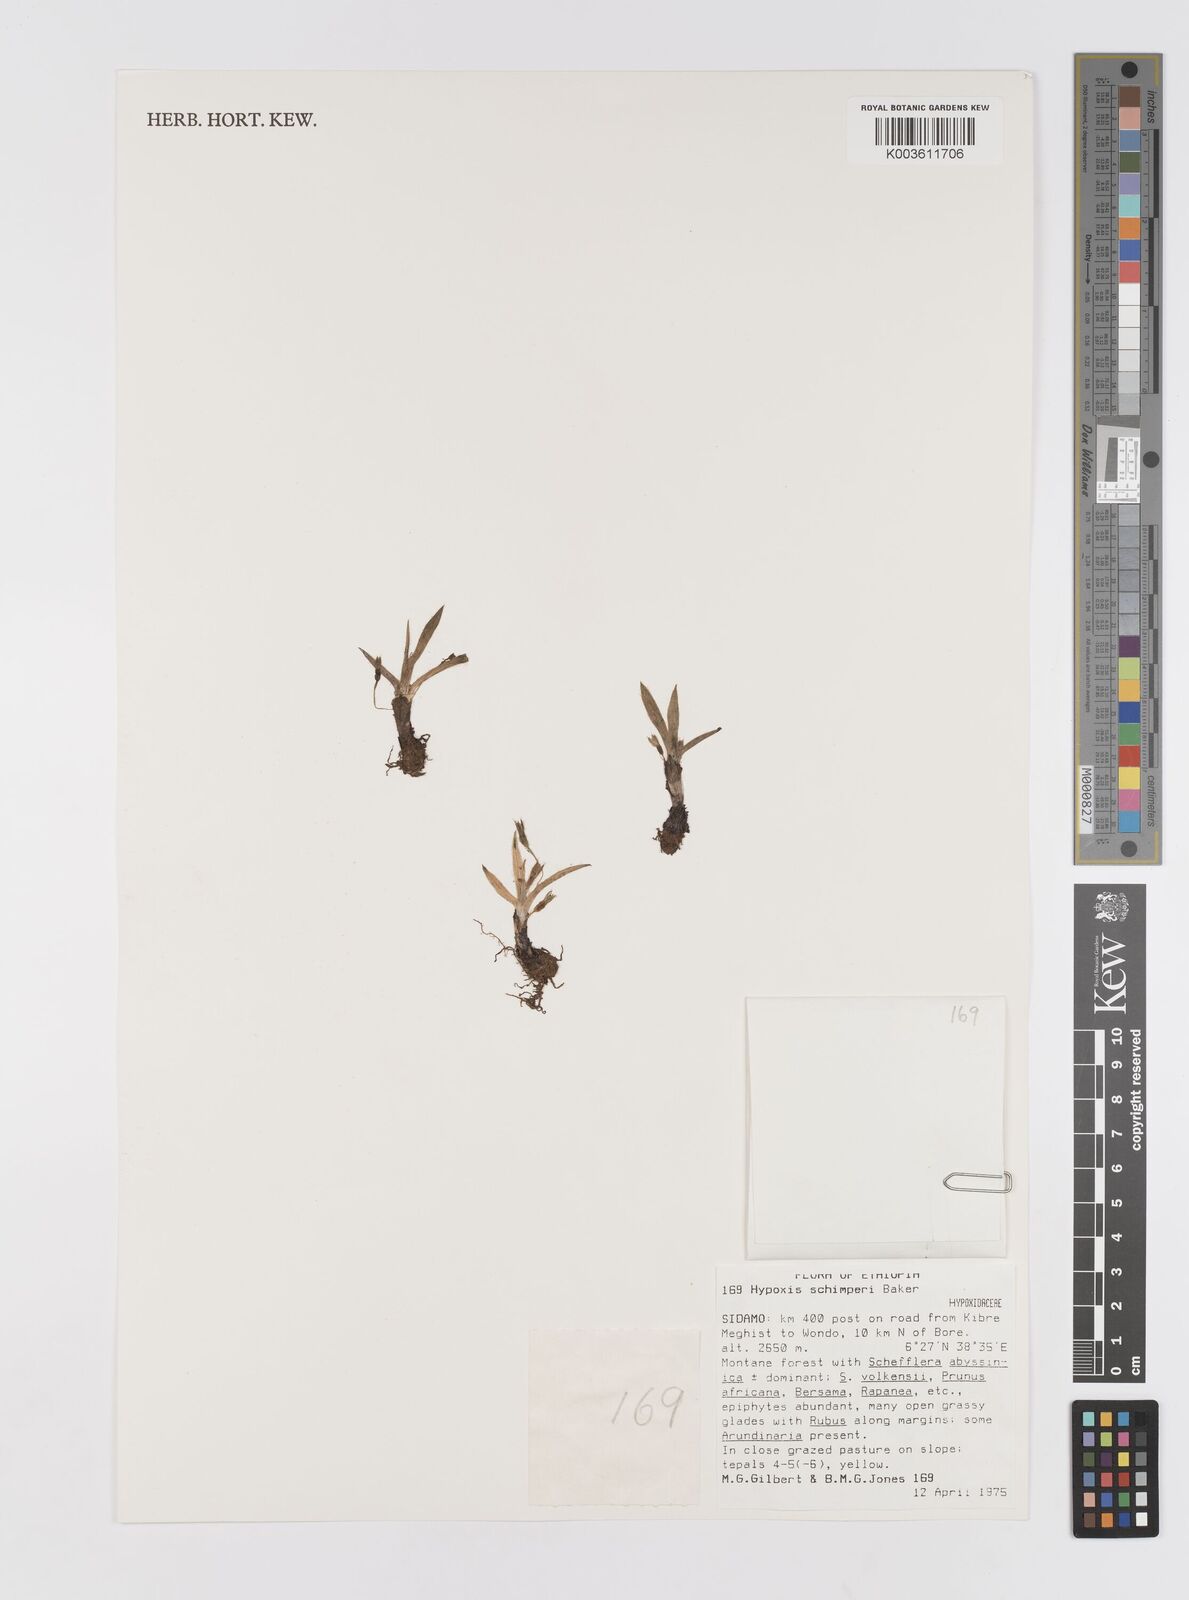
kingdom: Plantae
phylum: Tracheophyta
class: Liliopsida
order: Asparagales
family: Hypoxidaceae
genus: Hypoxis
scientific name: Hypoxis villosa
